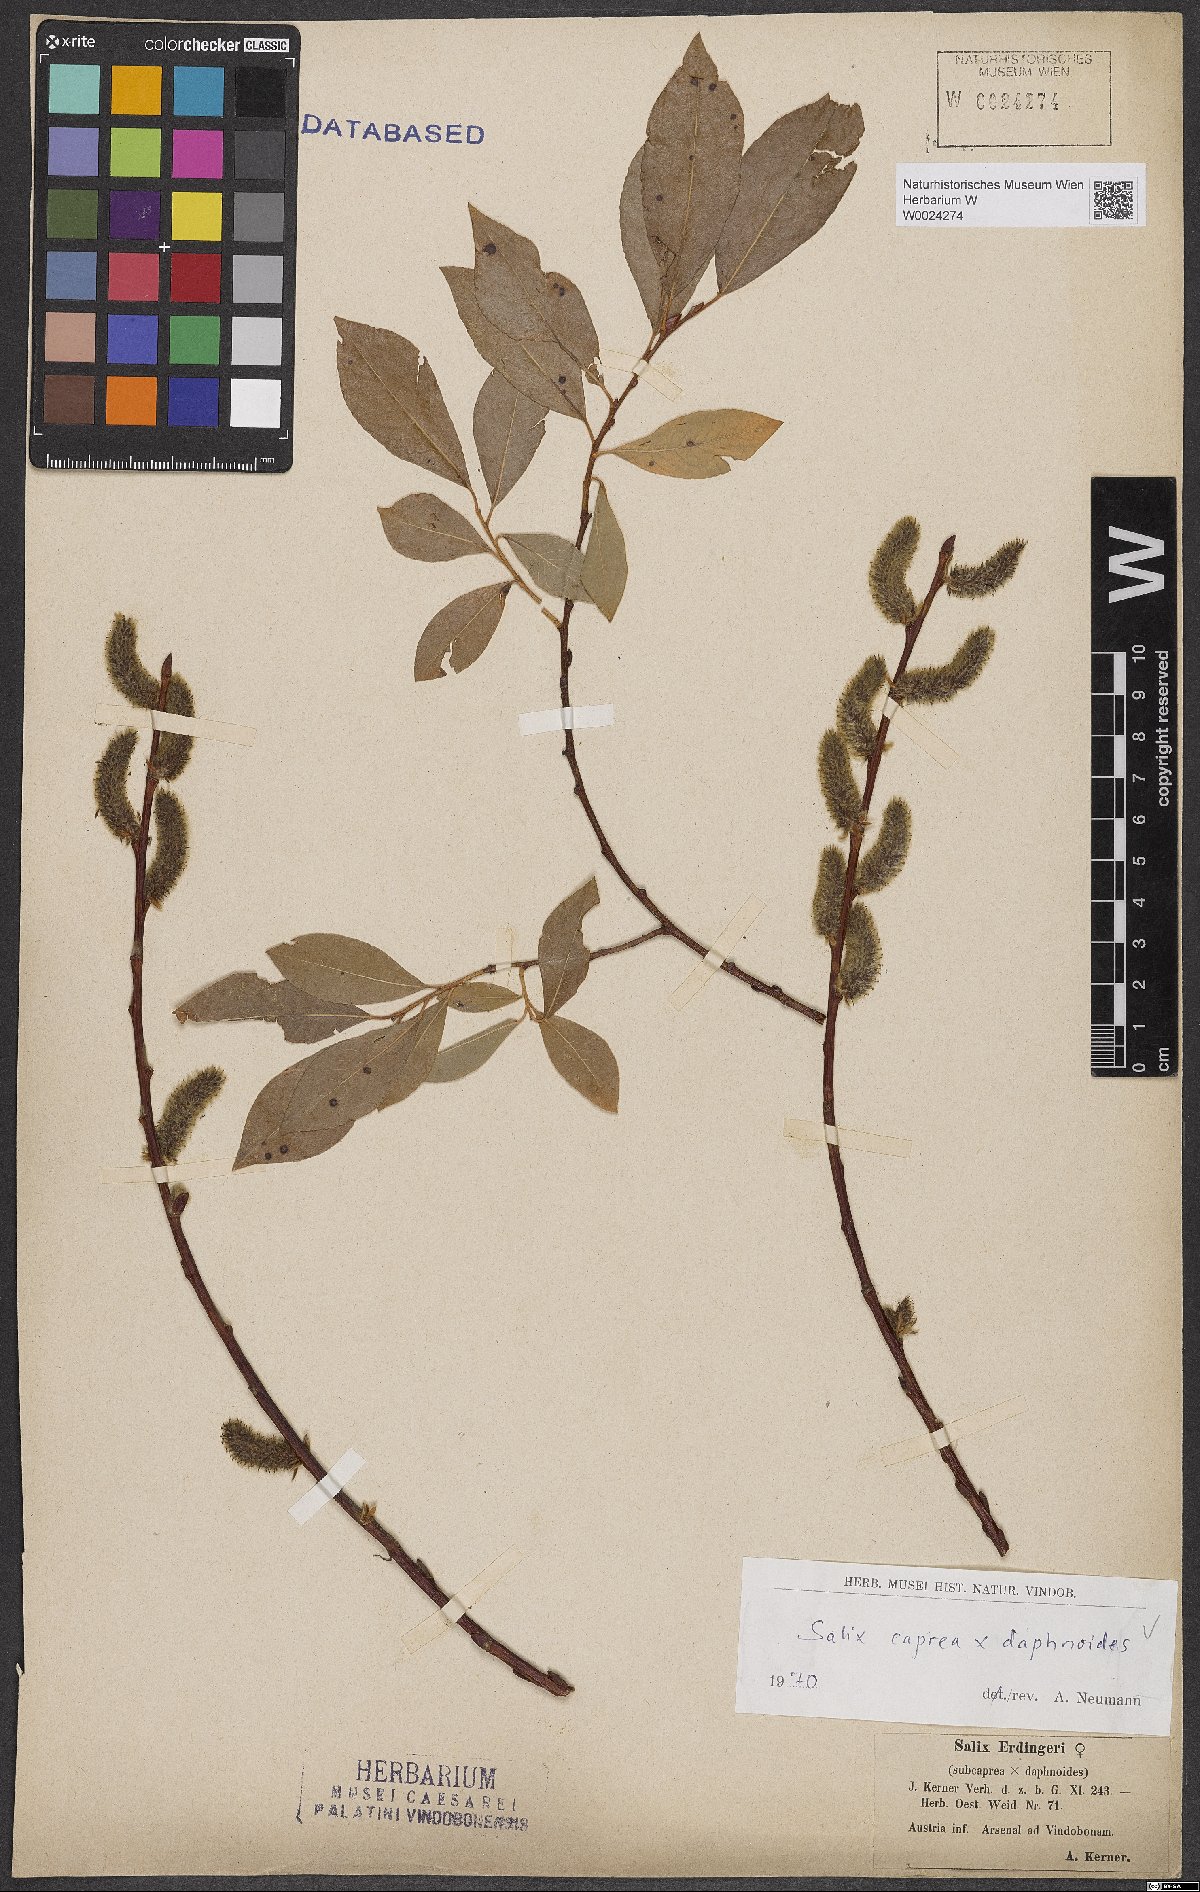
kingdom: Plantae
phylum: Tracheophyta
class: Magnoliopsida
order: Malpighiales
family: Salicaceae
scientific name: Salicaceae
